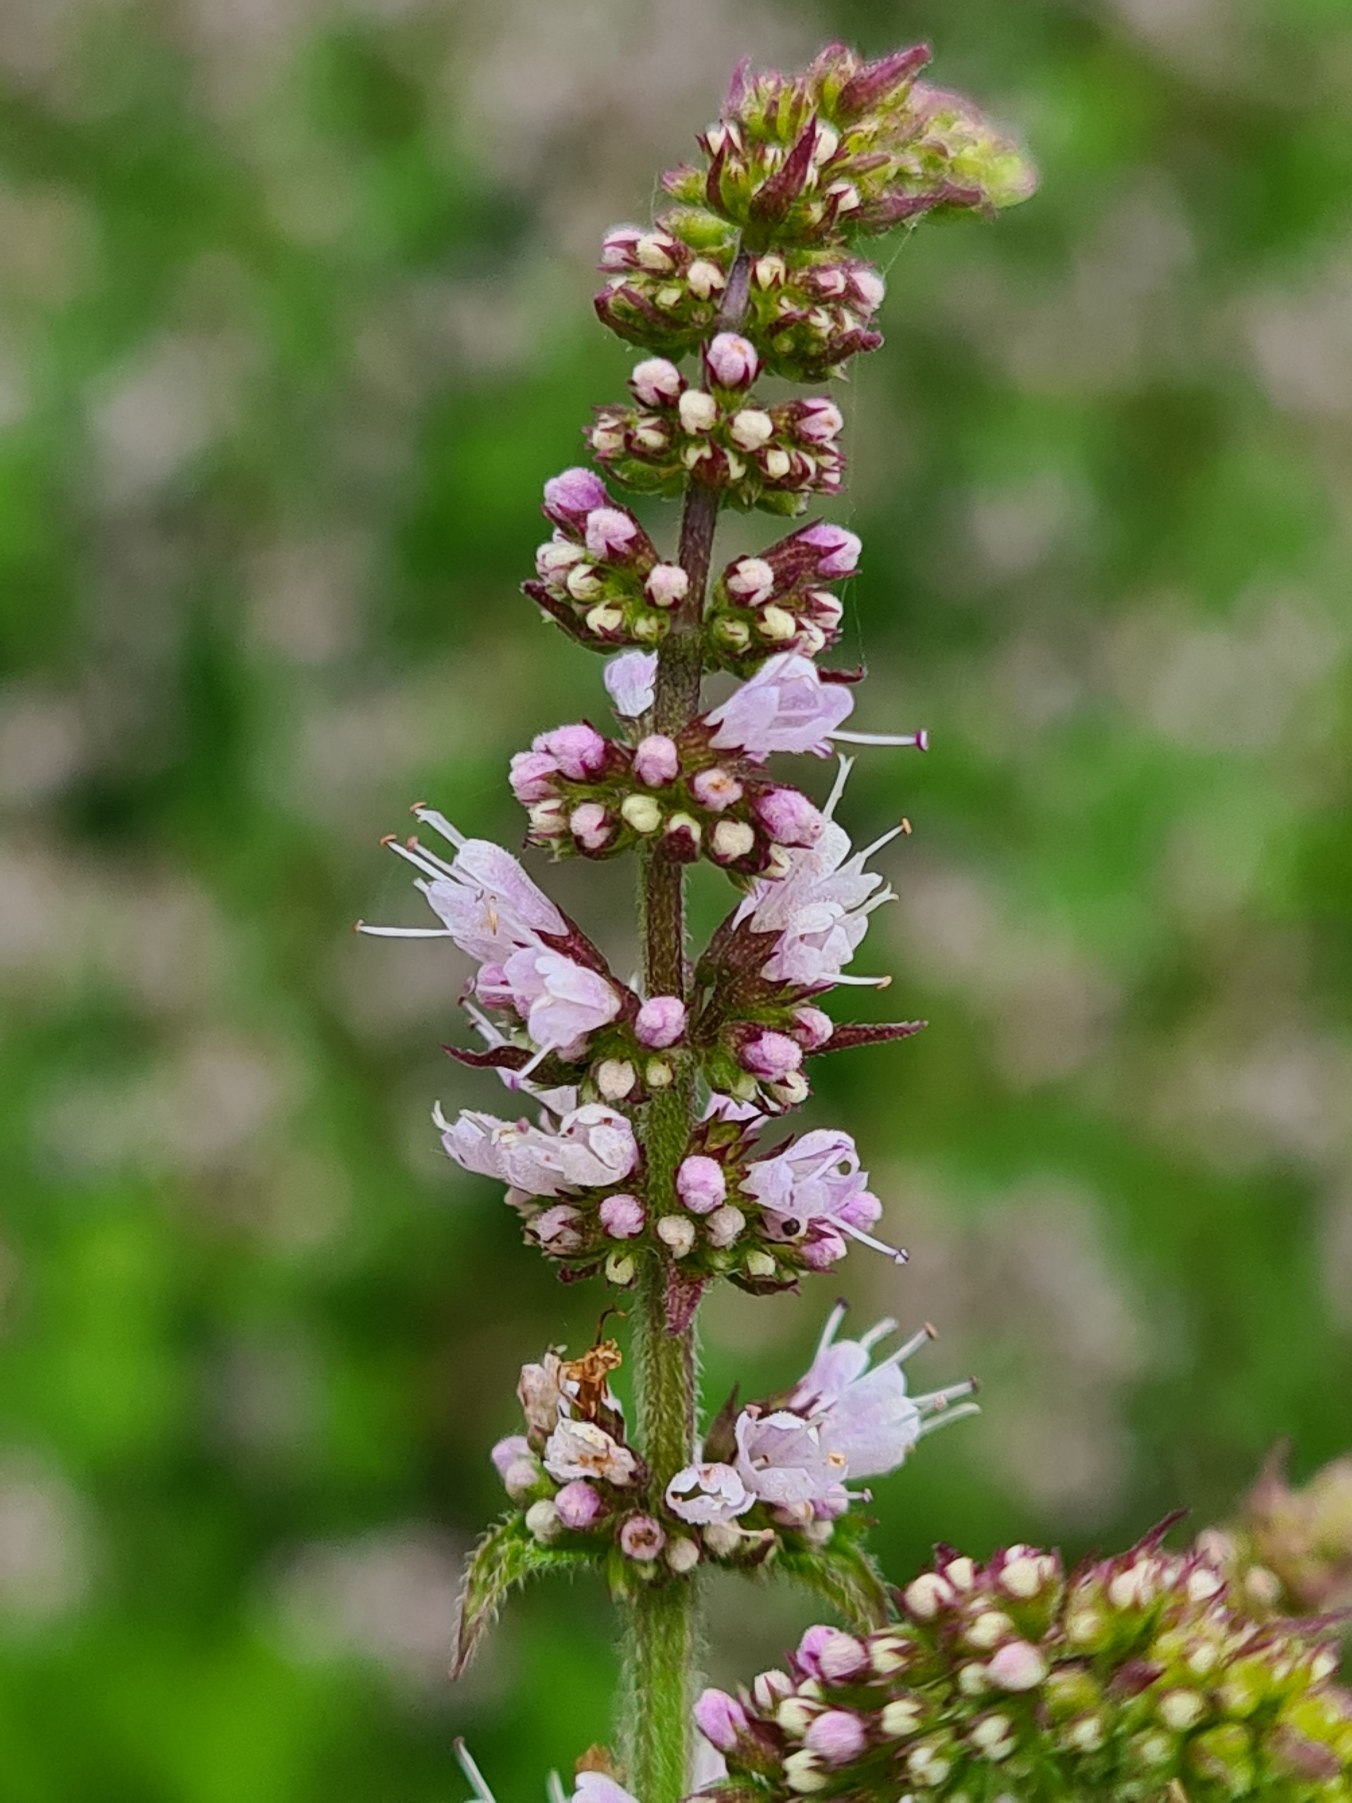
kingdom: Plantae
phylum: Tracheophyta
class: Magnoliopsida
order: Lamiales
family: Lamiaceae
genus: Mentha
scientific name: Mentha villosa
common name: Æble-mynte
